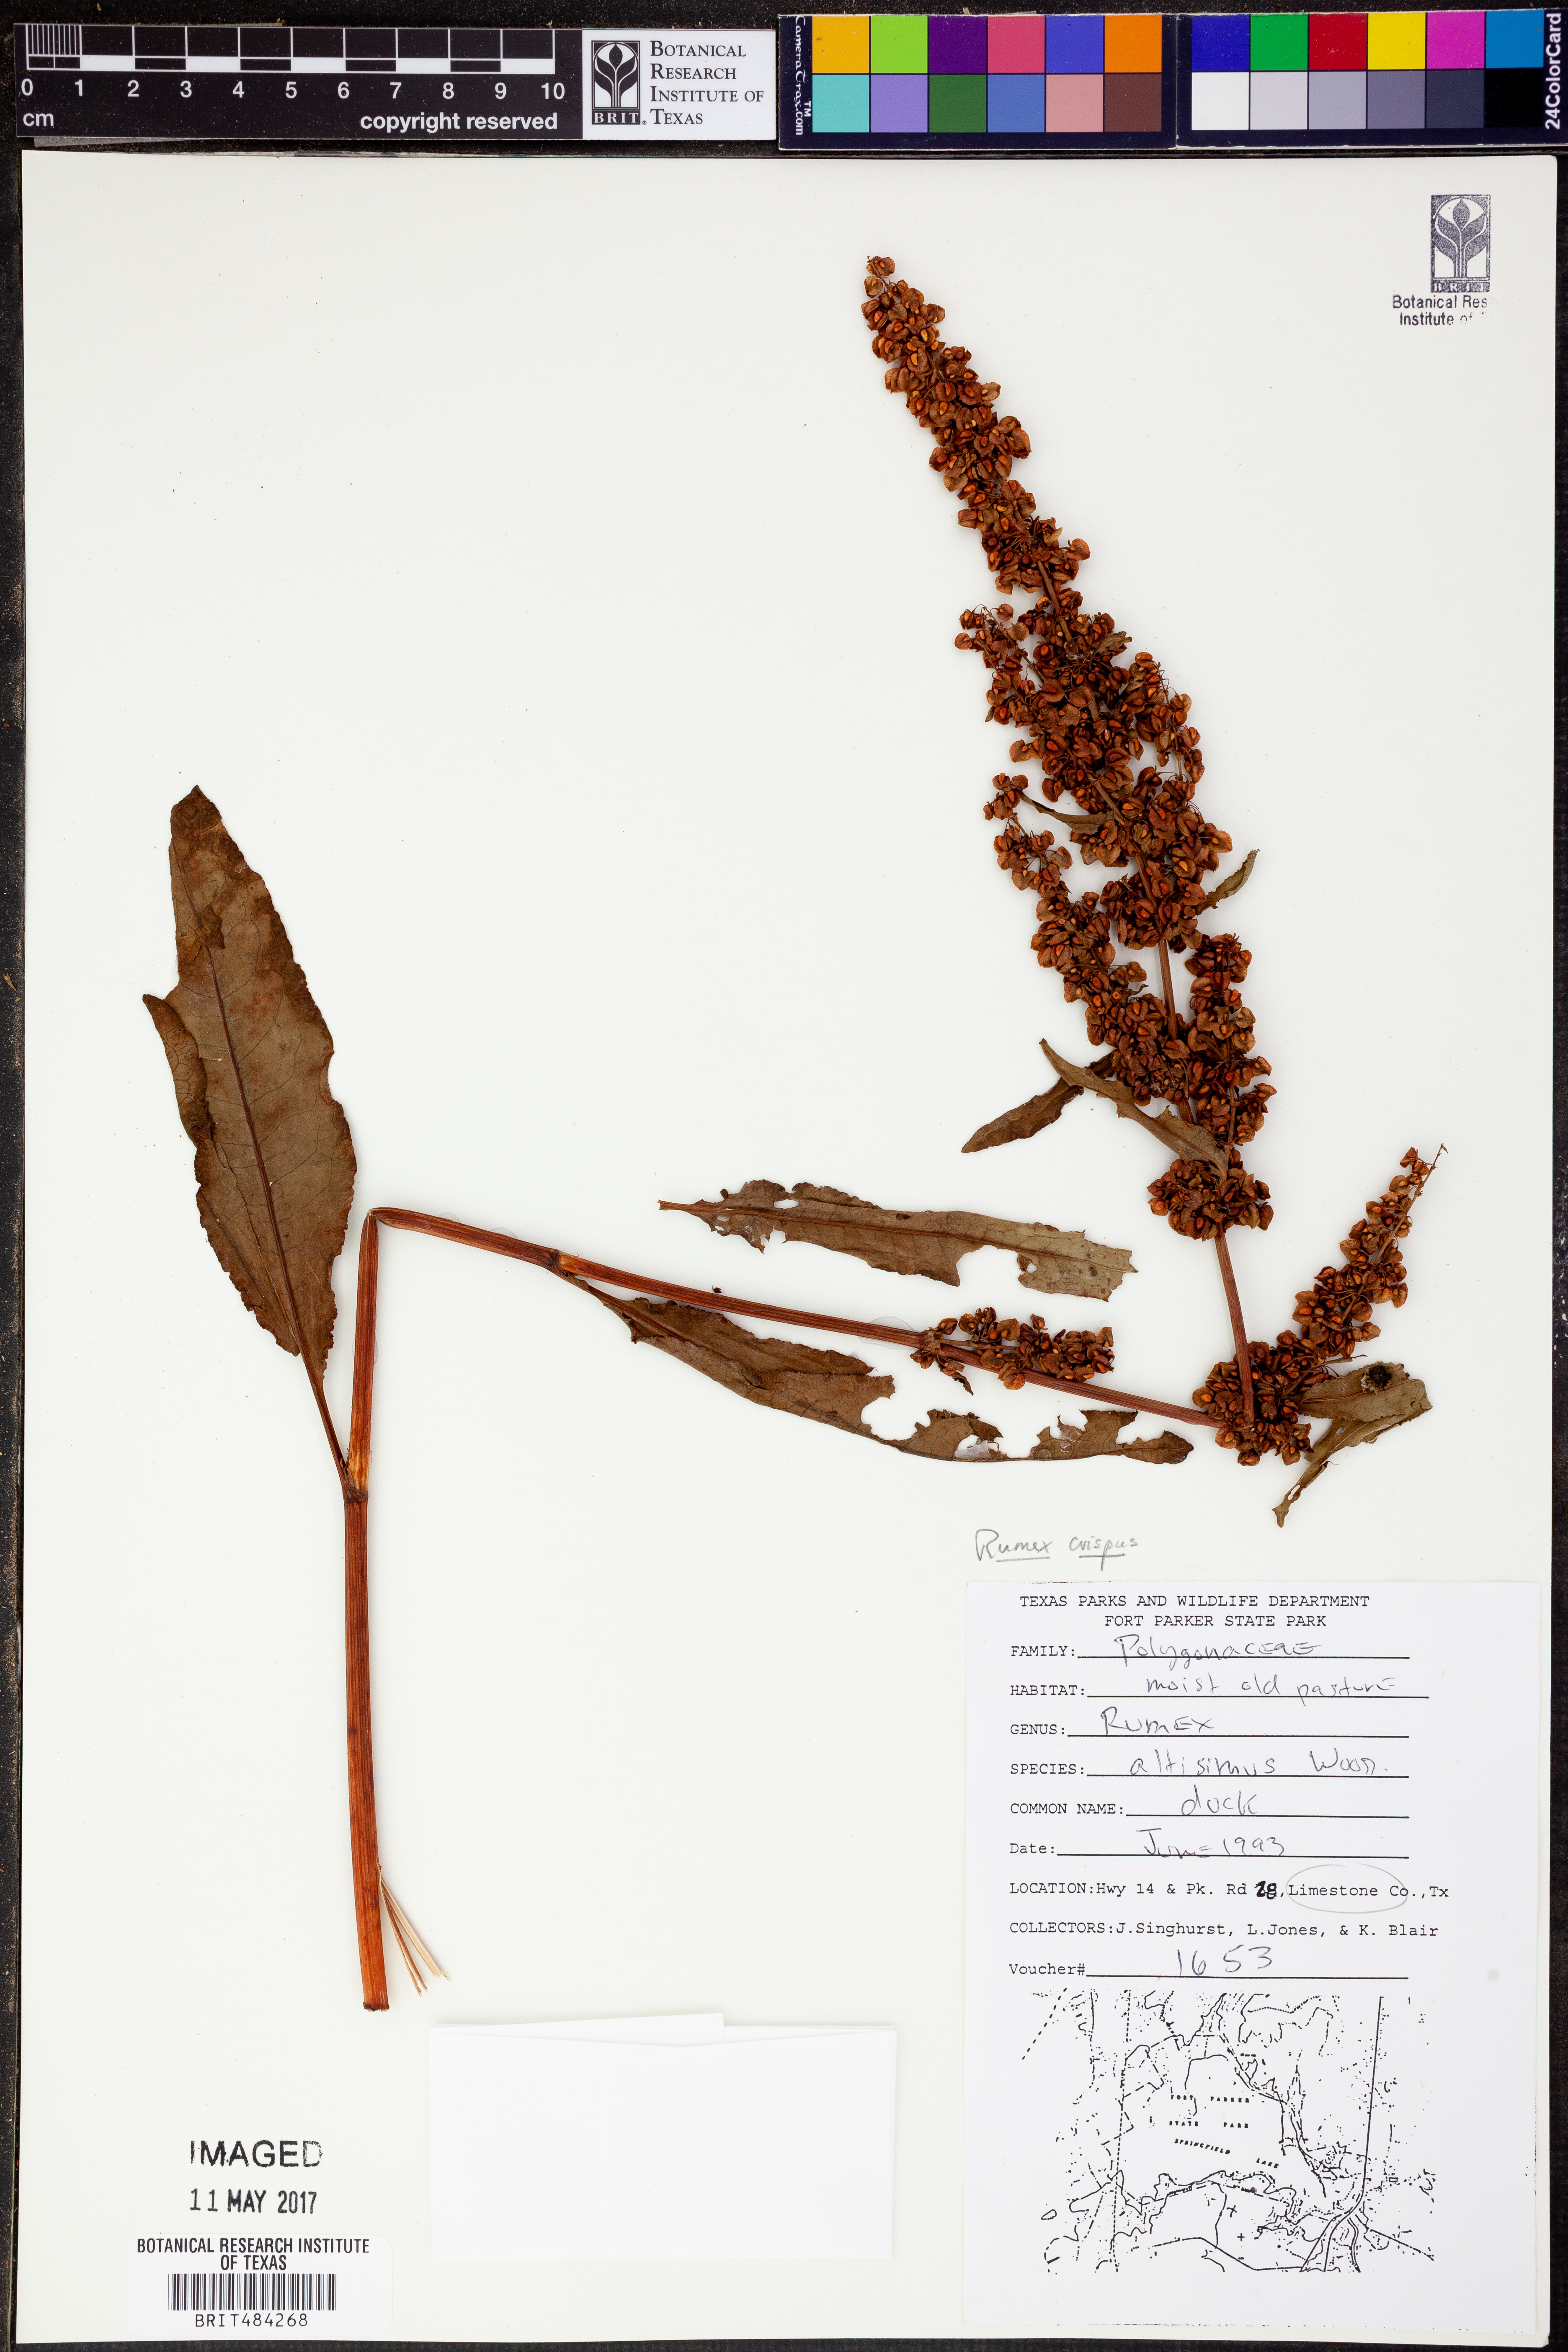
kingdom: Plantae
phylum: Tracheophyta
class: Magnoliopsida
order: Caryophyllales
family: Polygonaceae
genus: Rumex
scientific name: Rumex crispus
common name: Curled dock
